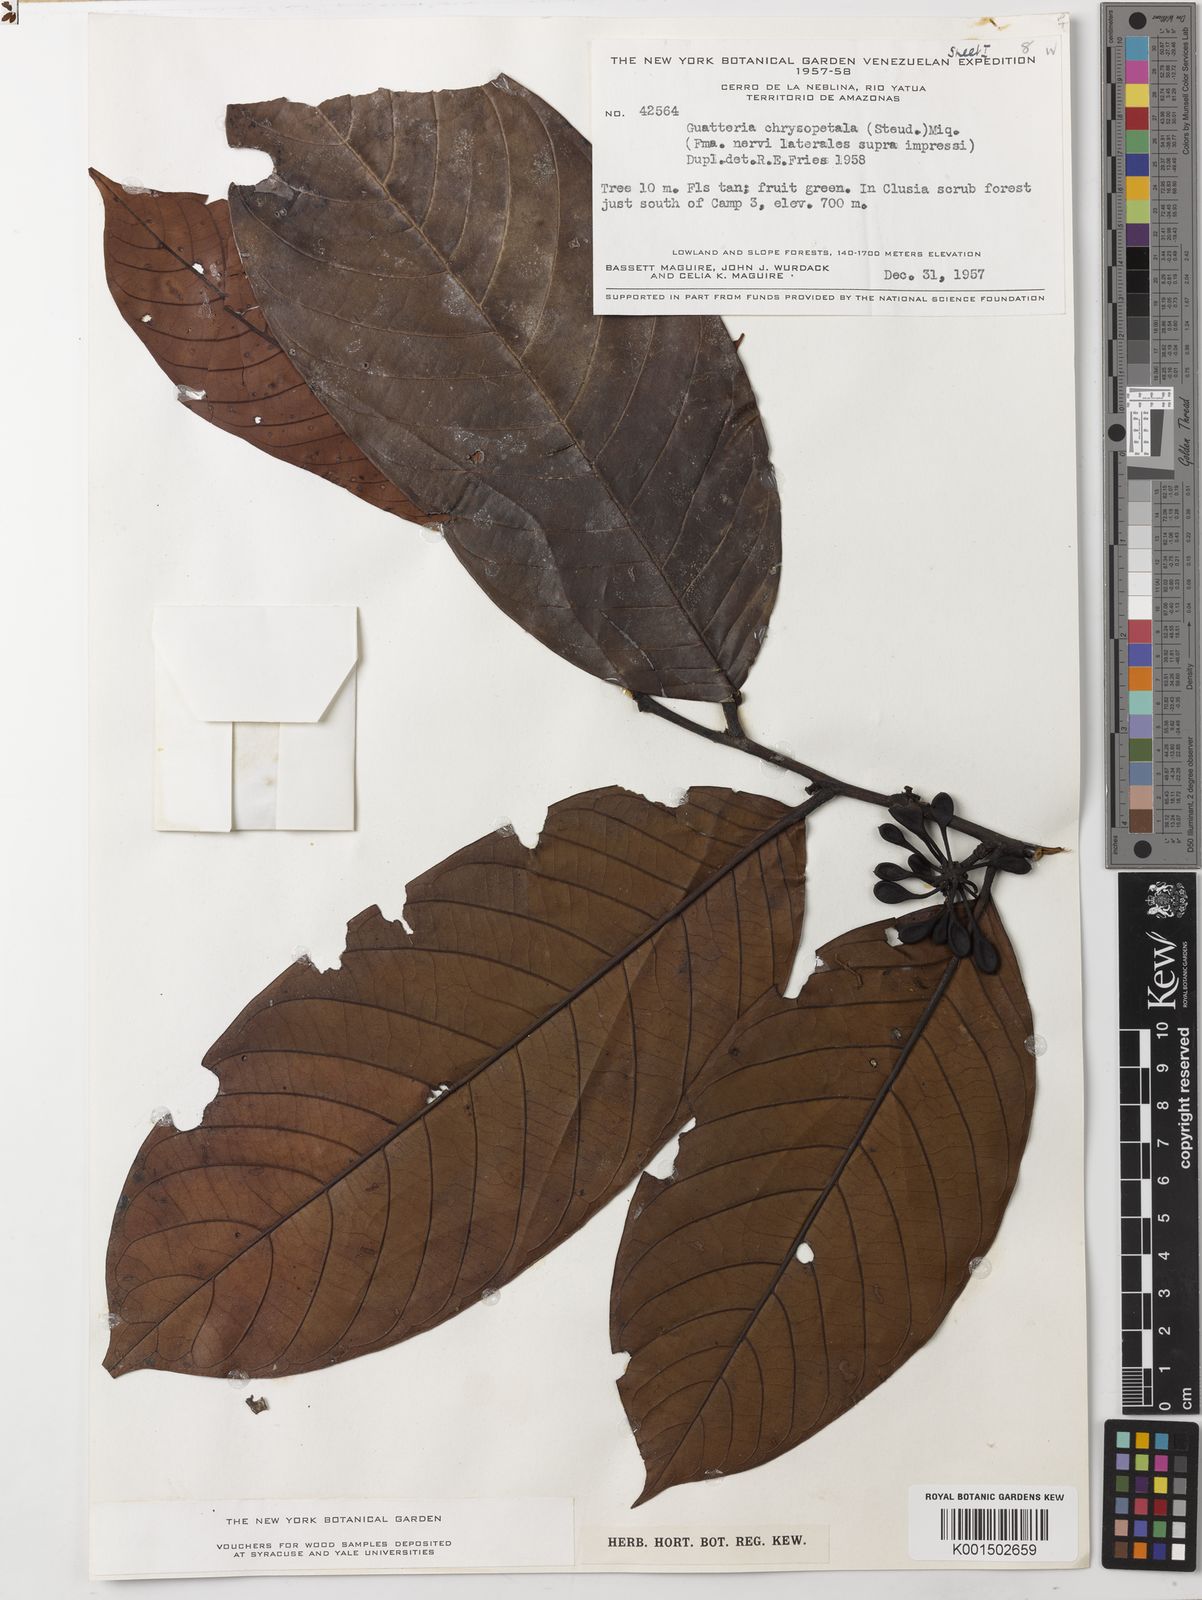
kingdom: Plantae
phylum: Tracheophyta
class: Magnoliopsida
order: Magnoliales
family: Annonaceae
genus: Guatteria
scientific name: Guatteria punctata
